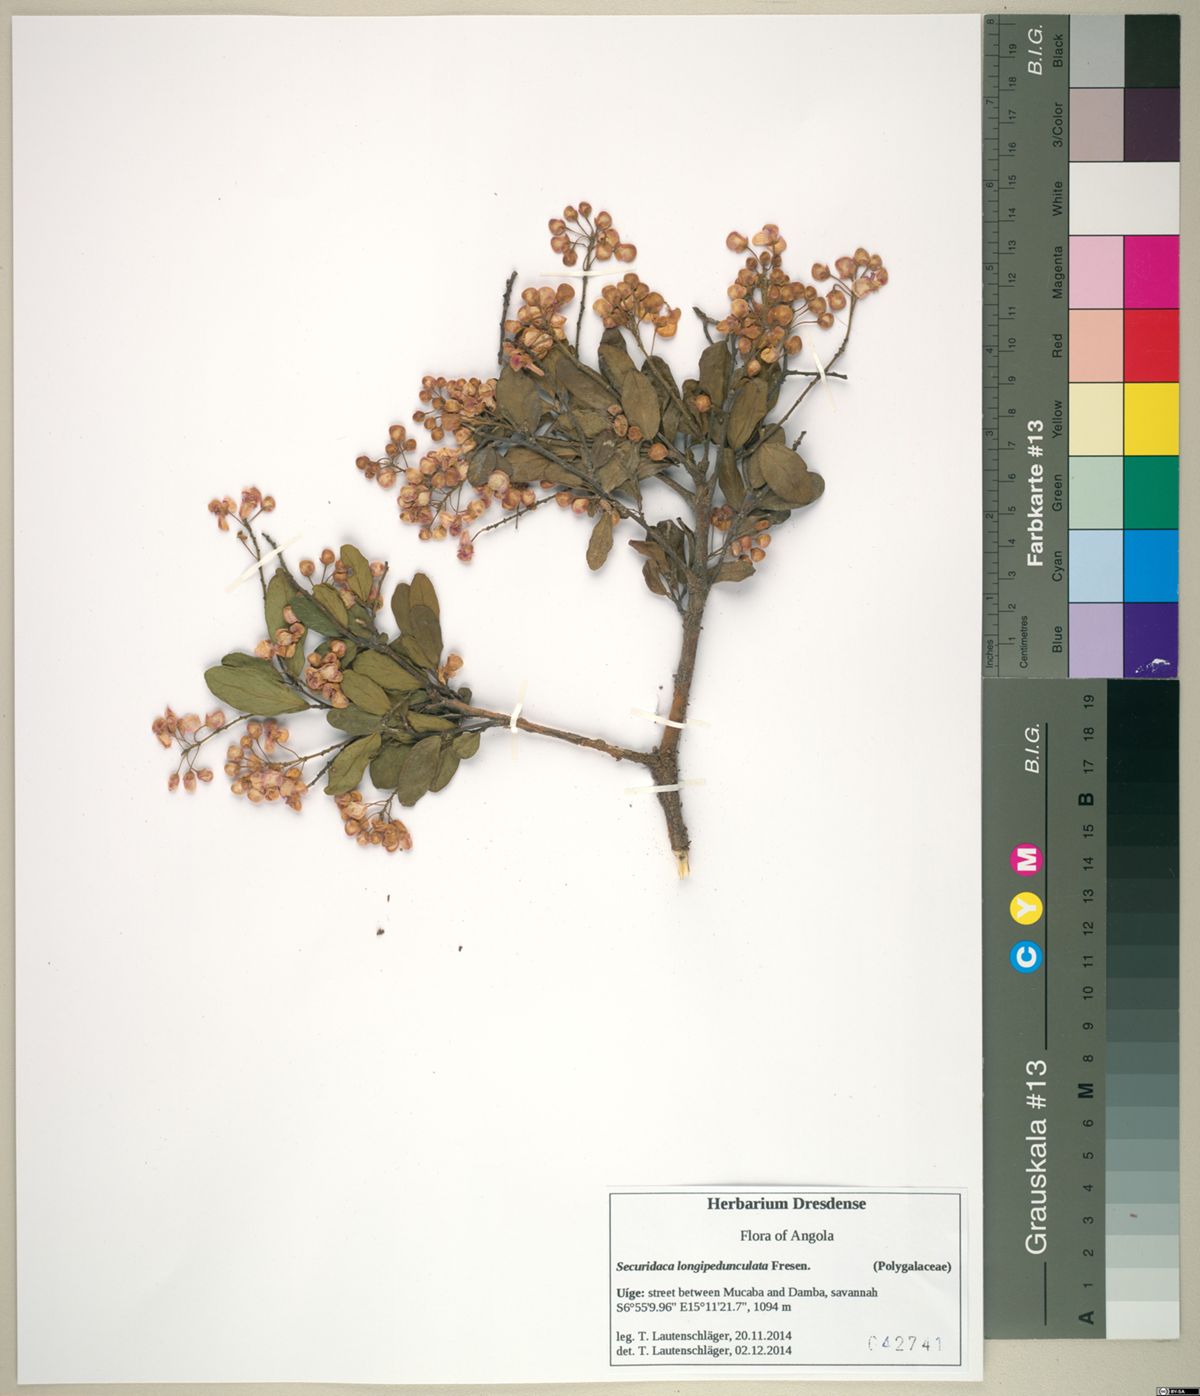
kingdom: Plantae
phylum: Tracheophyta
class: Magnoliopsida
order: Fabales
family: Polygalaceae
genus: Securidaca
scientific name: Securidaca longepedunculata
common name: Violet tree
